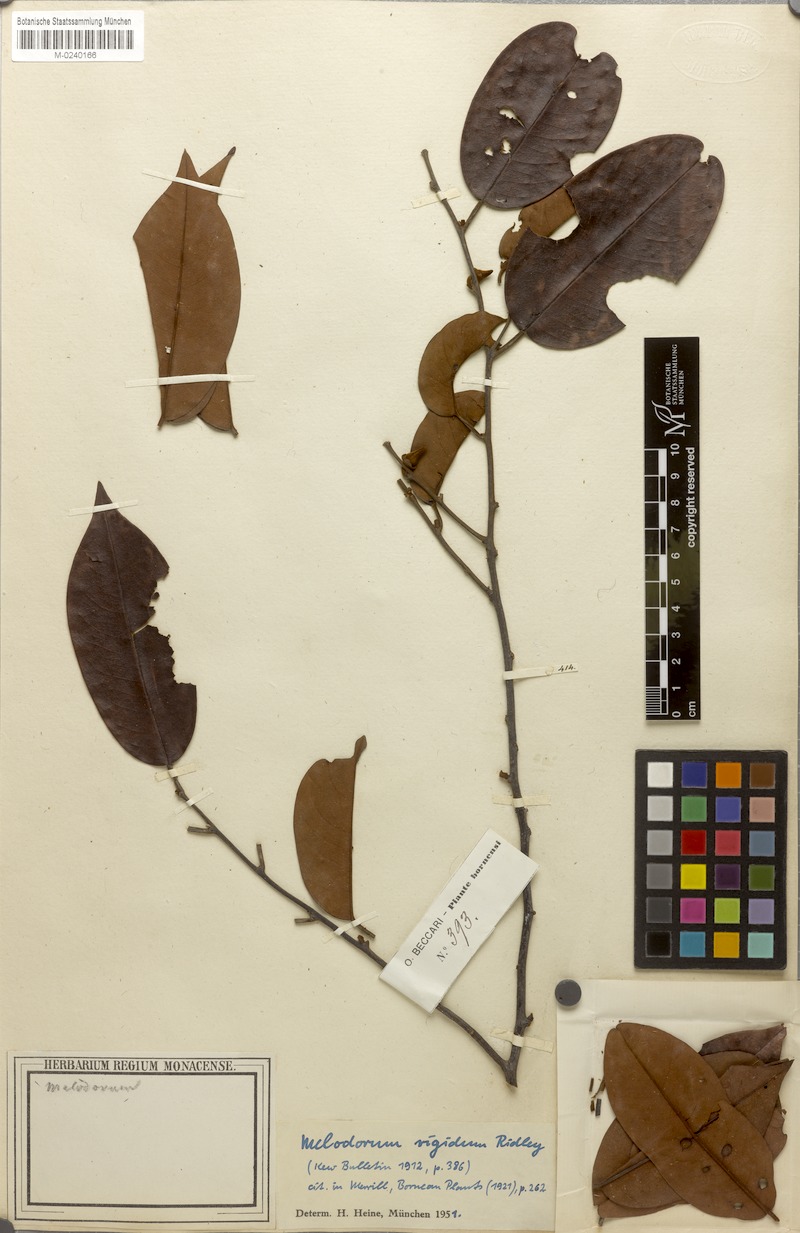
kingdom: Plantae
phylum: Tracheophyta
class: Magnoliopsida
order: Magnoliales
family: Annonaceae
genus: Pyramidanthe
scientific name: Pyramidanthe prismatica
